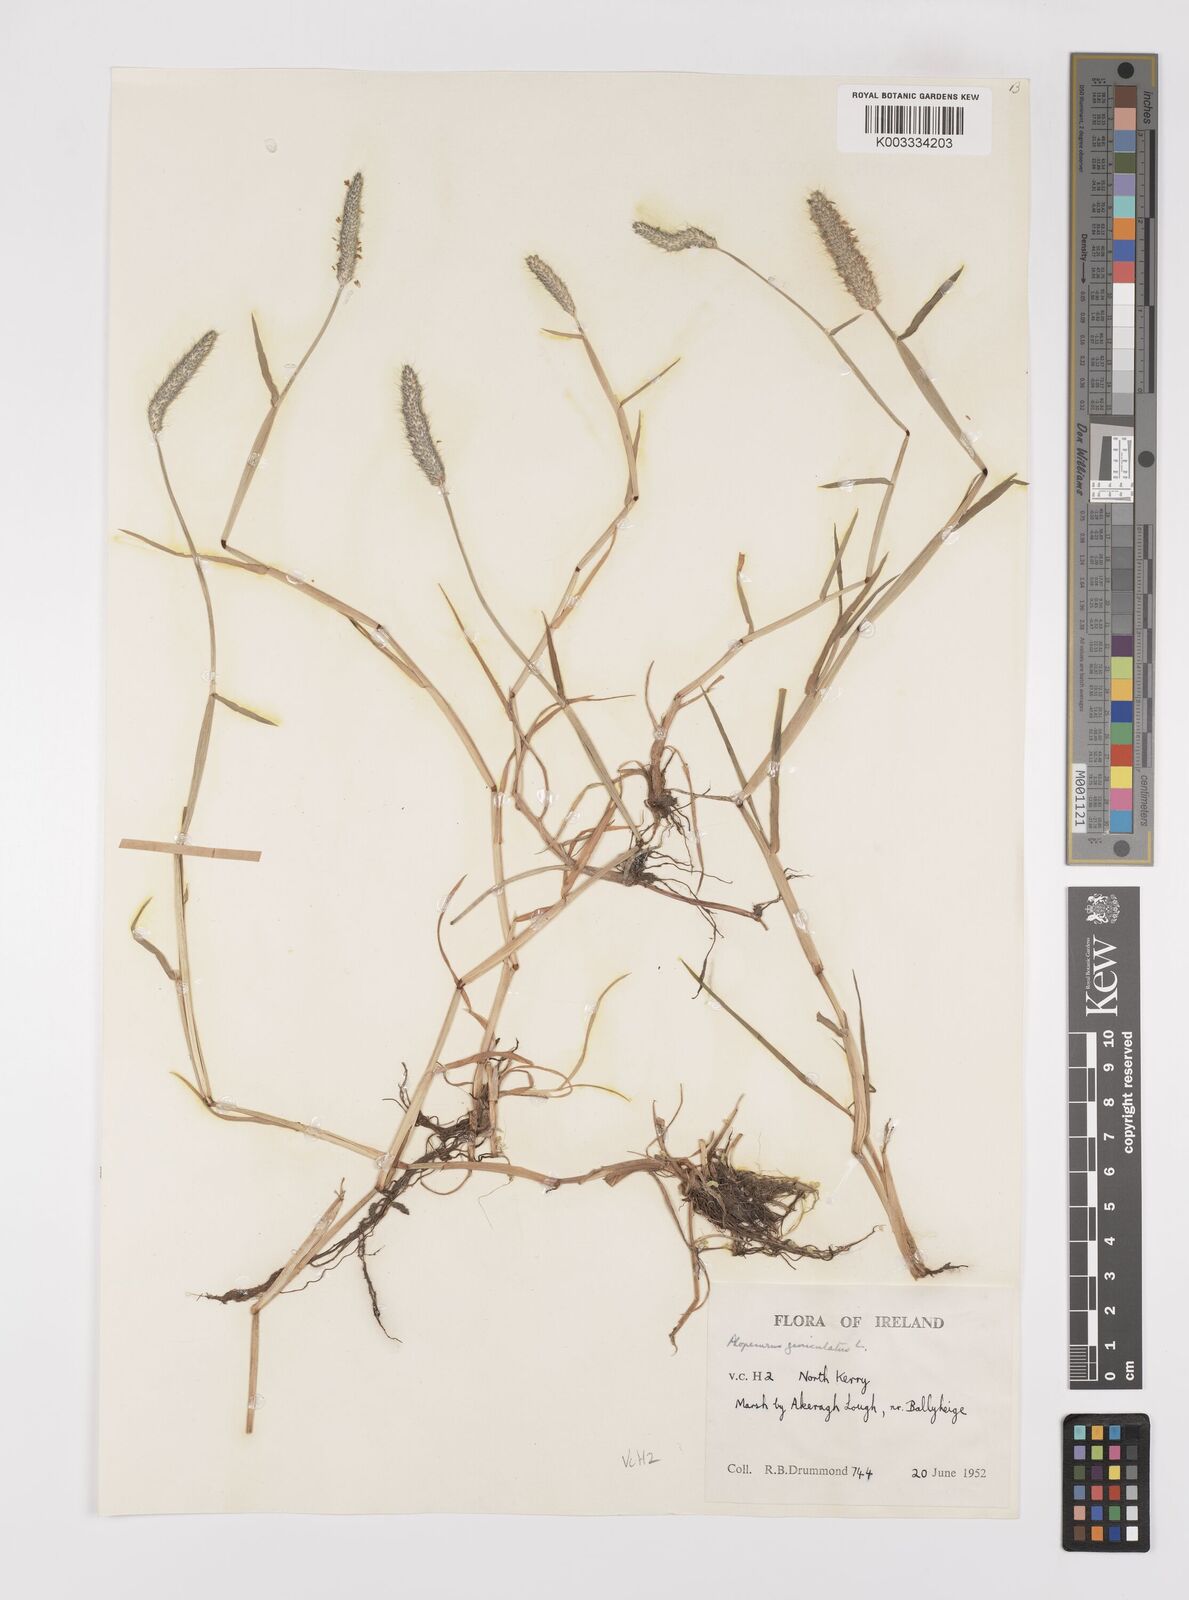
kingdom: Plantae
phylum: Tracheophyta
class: Liliopsida
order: Poales
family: Poaceae
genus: Alopecurus
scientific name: Alopecurus geniculatus
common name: Water foxtail
